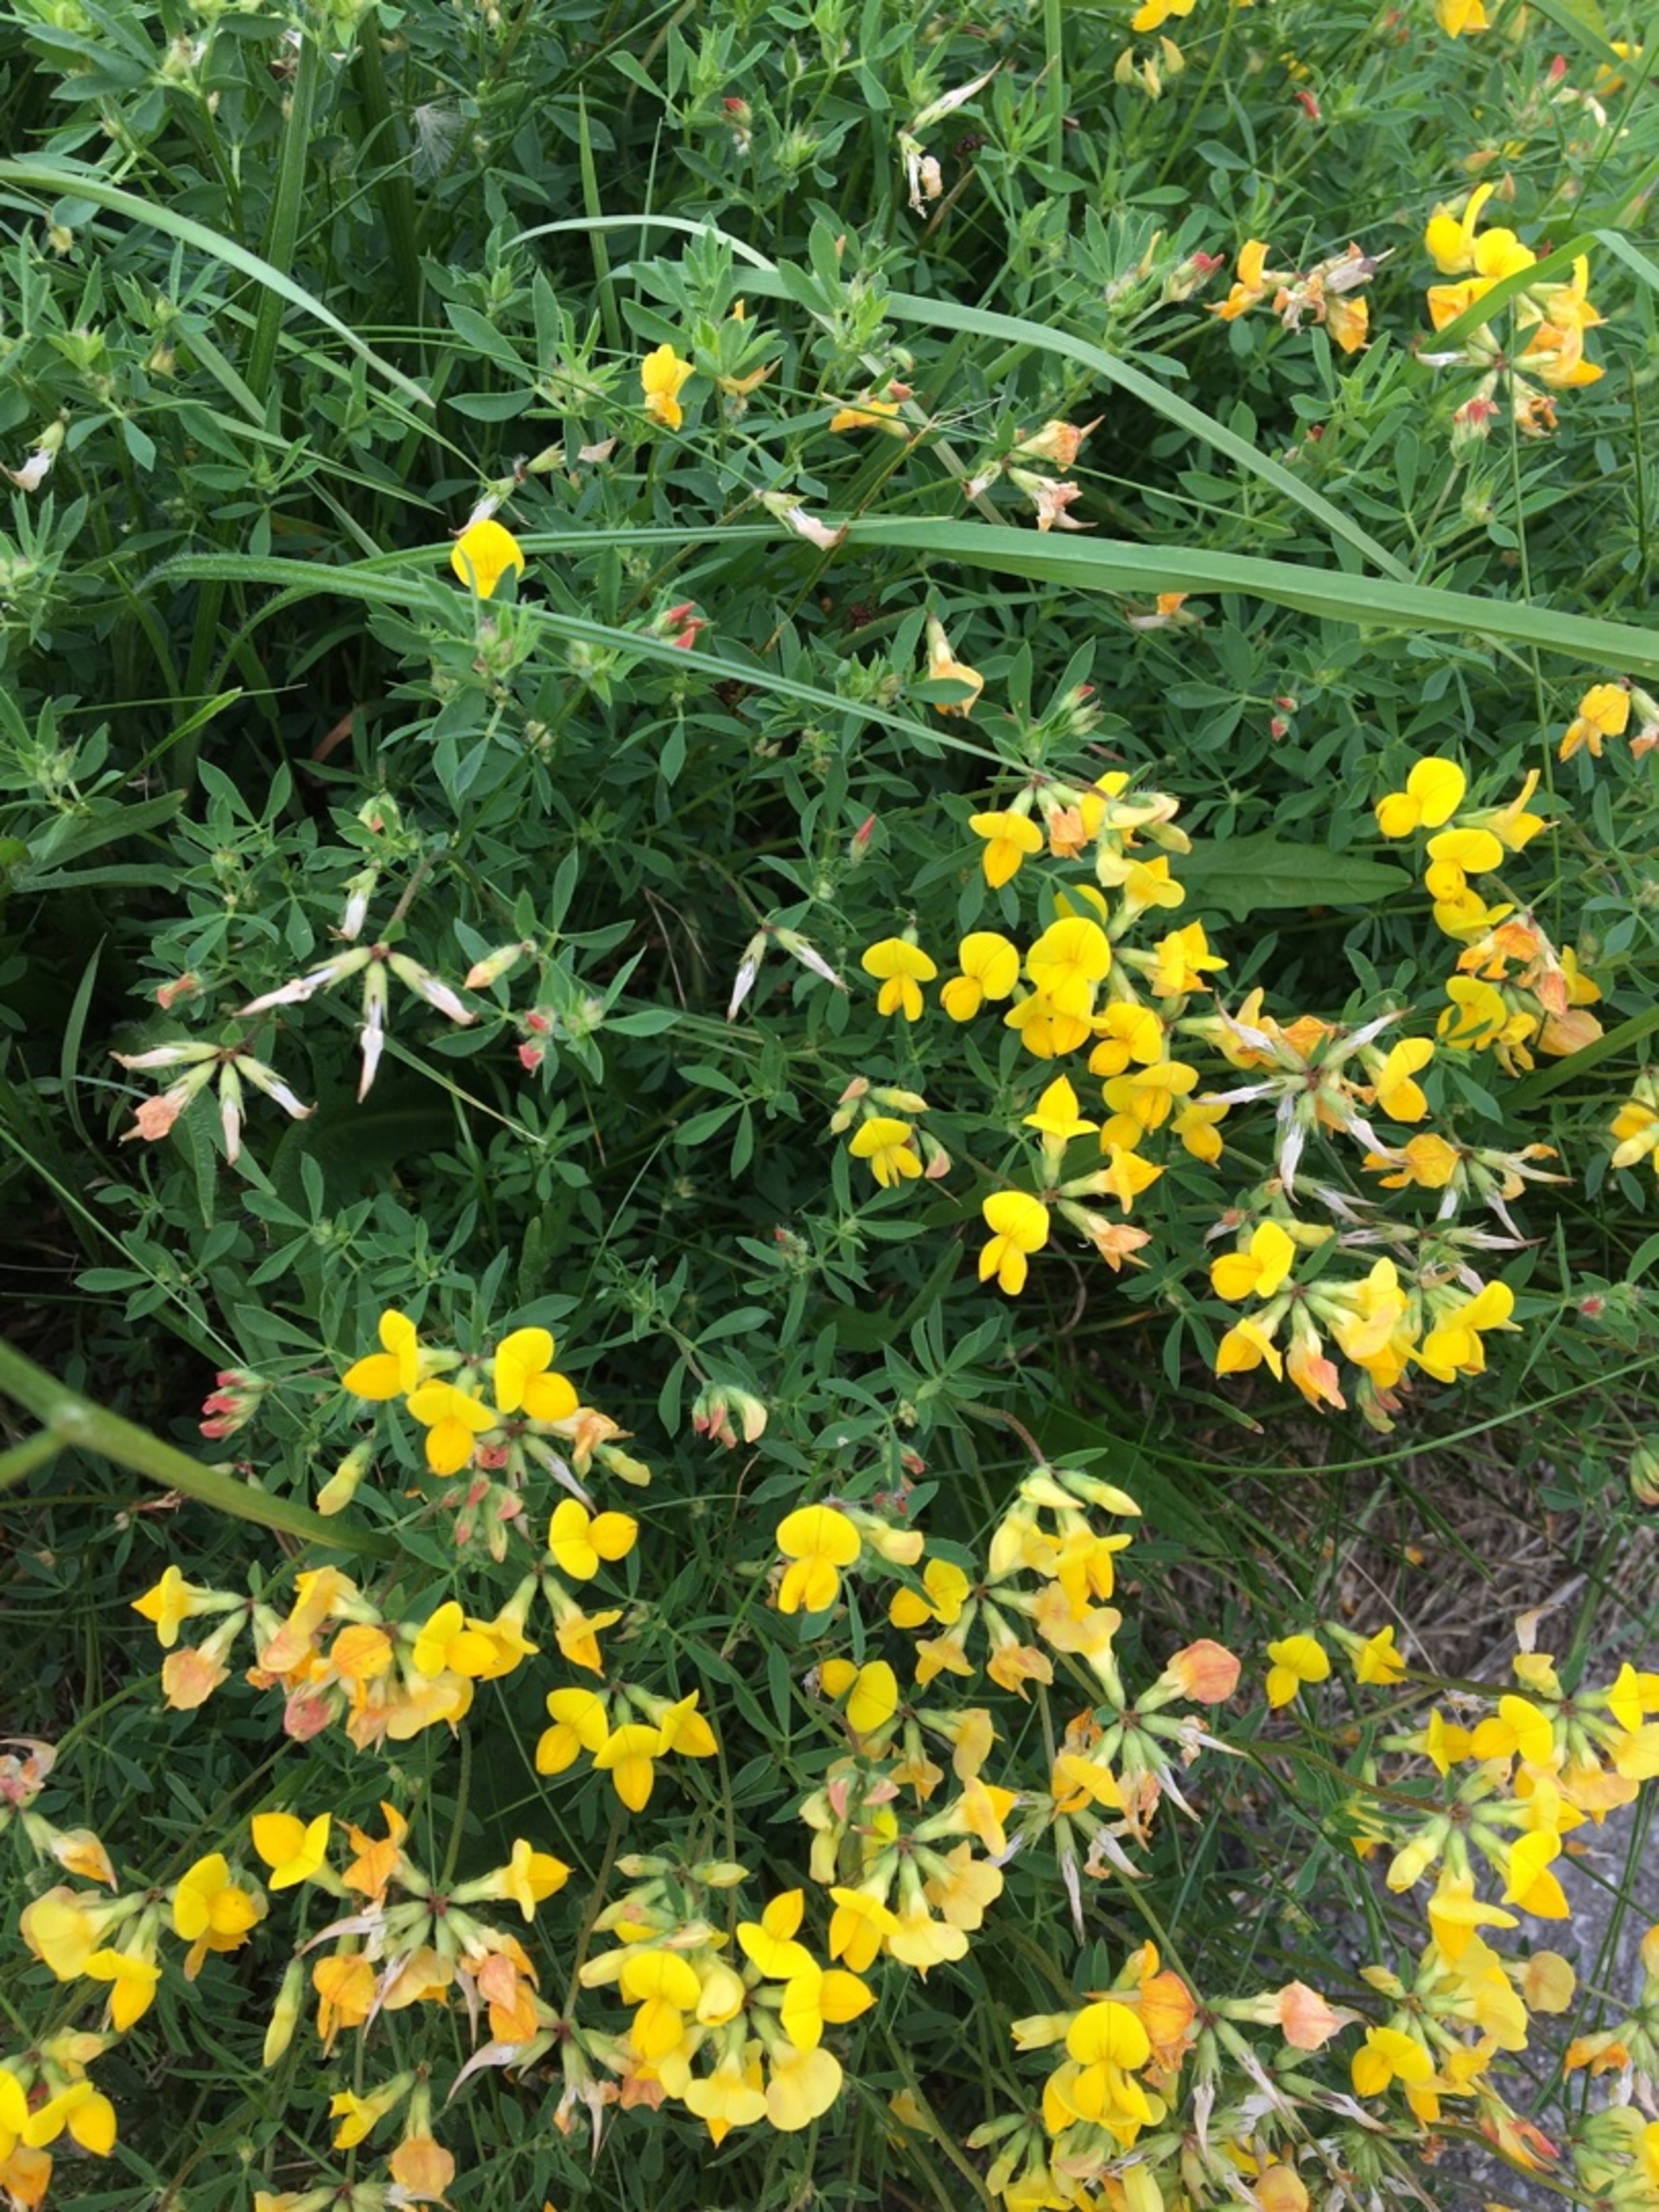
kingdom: Plantae
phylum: Tracheophyta
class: Magnoliopsida
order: Fabales
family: Fabaceae
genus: Lotus
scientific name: Lotus tenuis
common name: Smalbladet kællingetand
